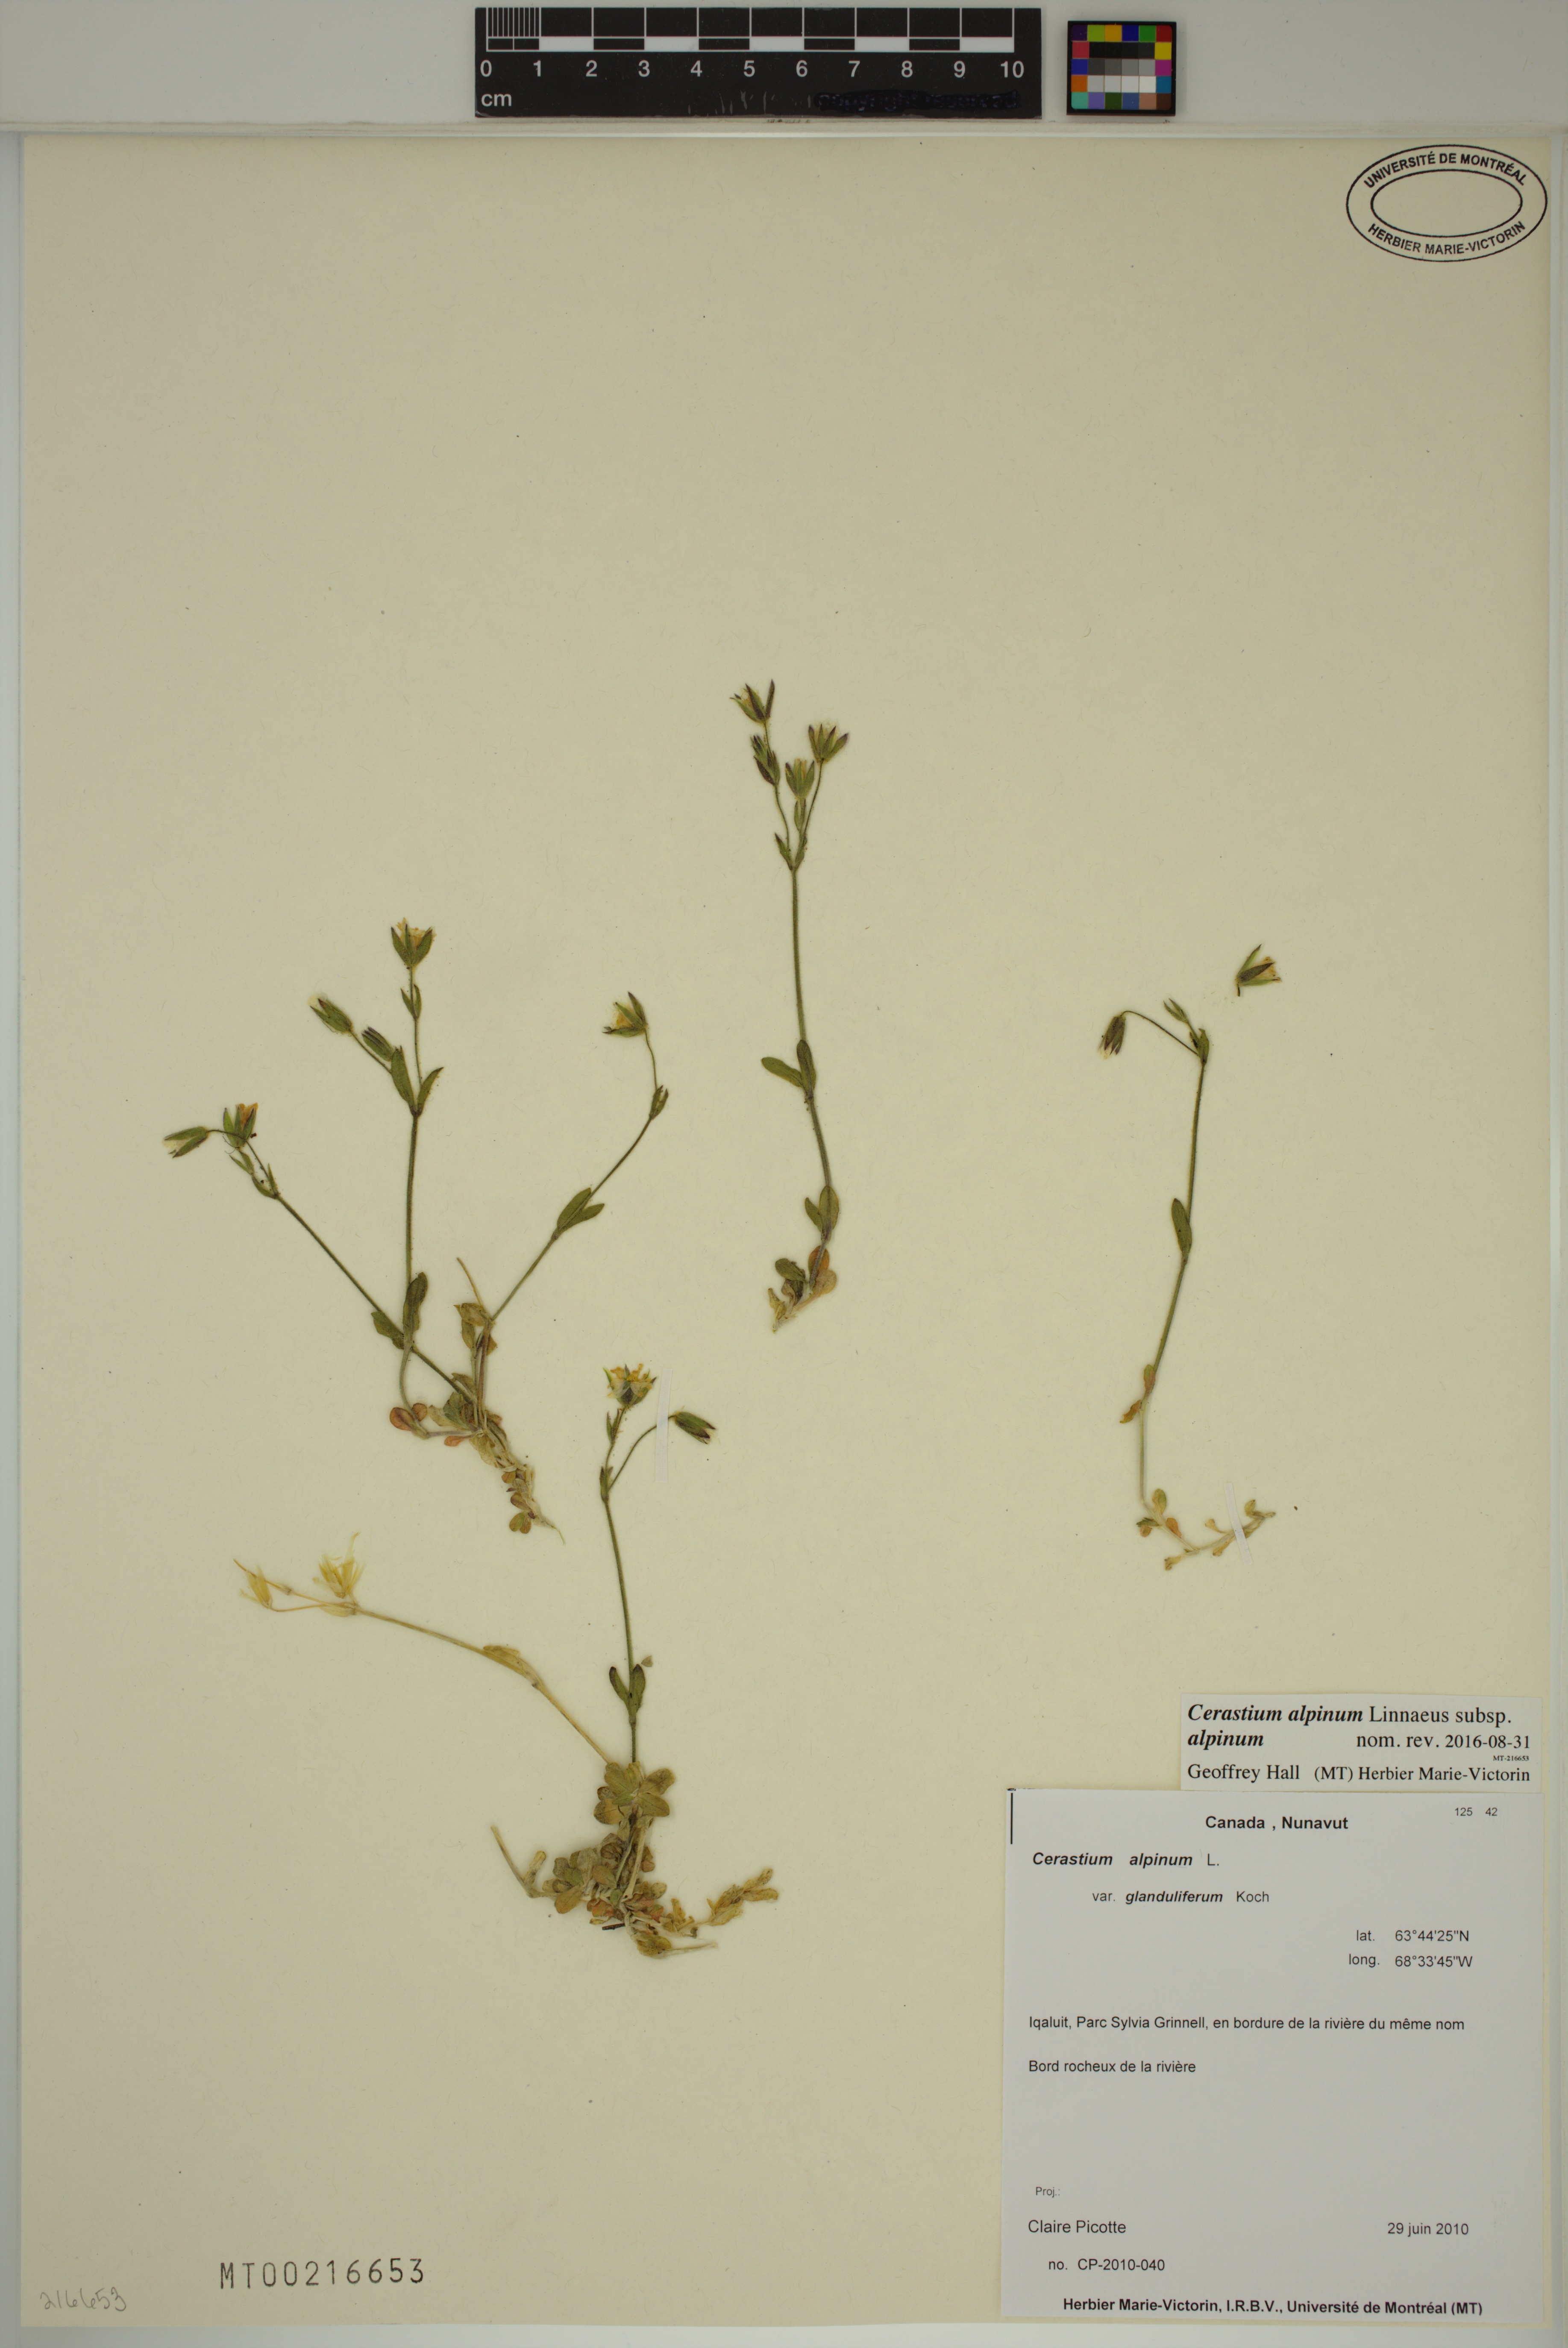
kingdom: Plantae
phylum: Tracheophyta
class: Magnoliopsida
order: Caryophyllales
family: Caryophyllaceae
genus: Cerastium
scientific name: Cerastium alpinum
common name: Alpine mouse-ear
